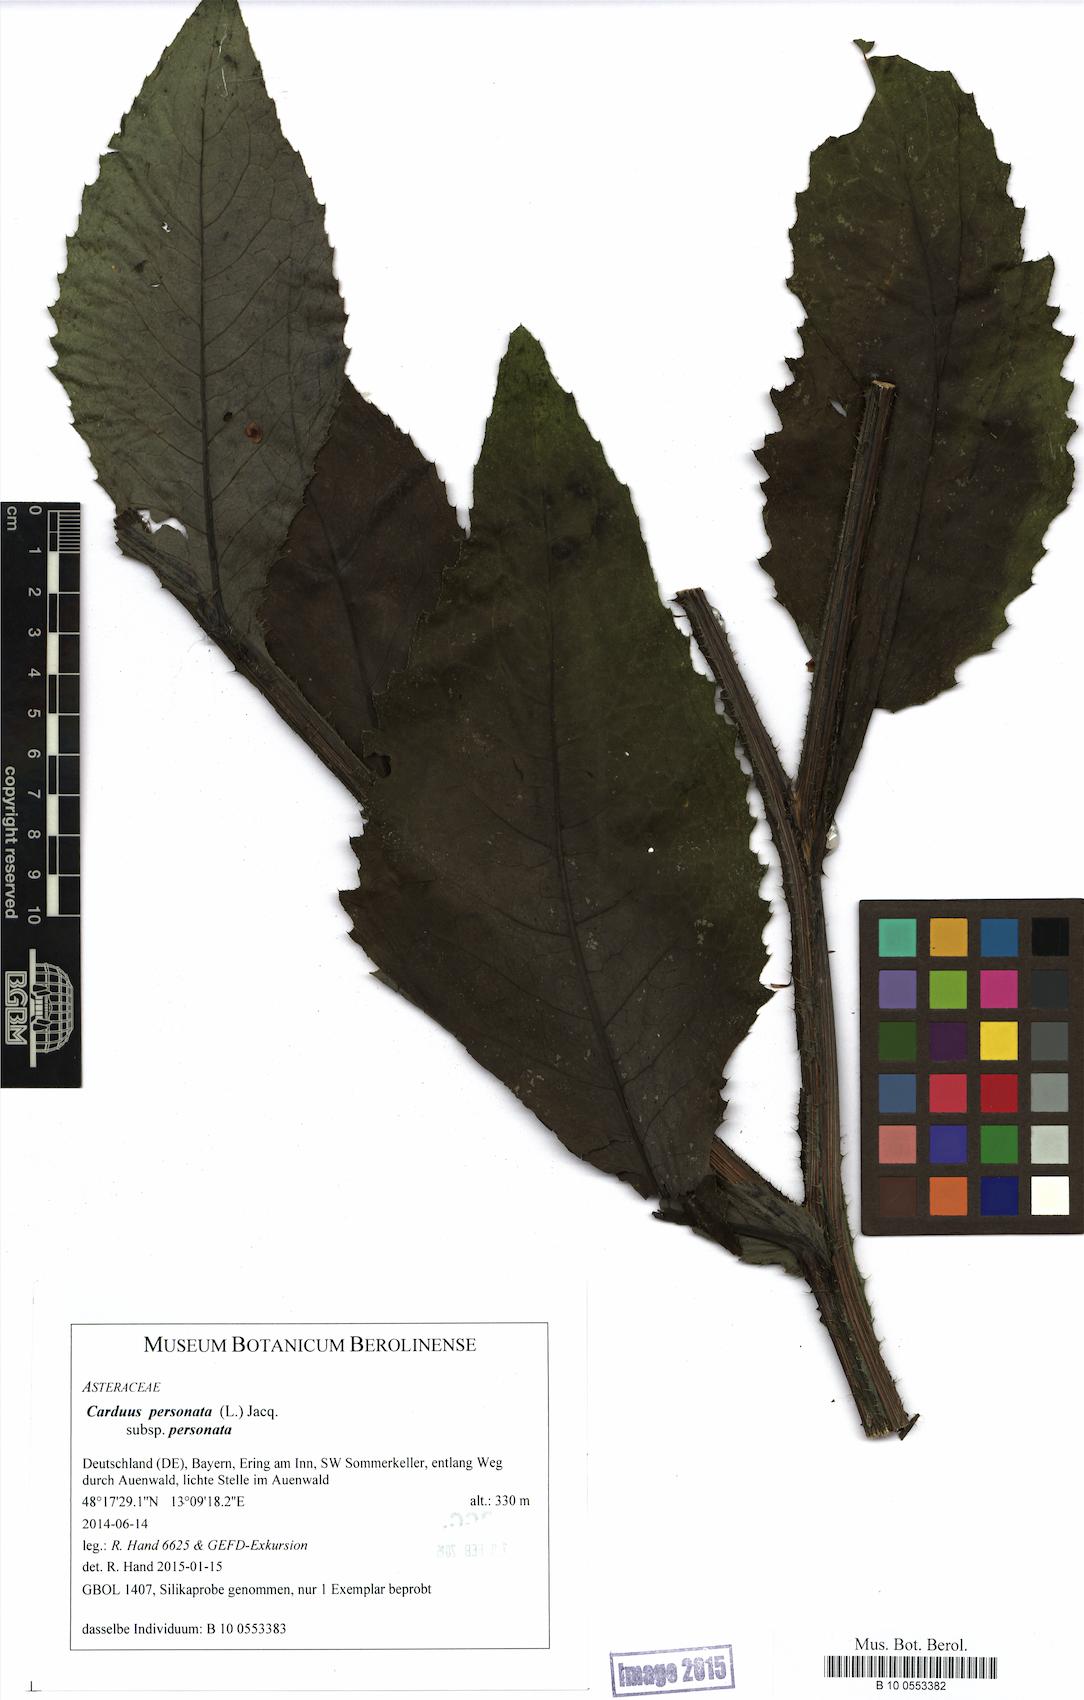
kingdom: Plantae
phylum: Tracheophyta
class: Magnoliopsida
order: Asterales
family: Asteraceae
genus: Carduus
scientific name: Carduus personata
